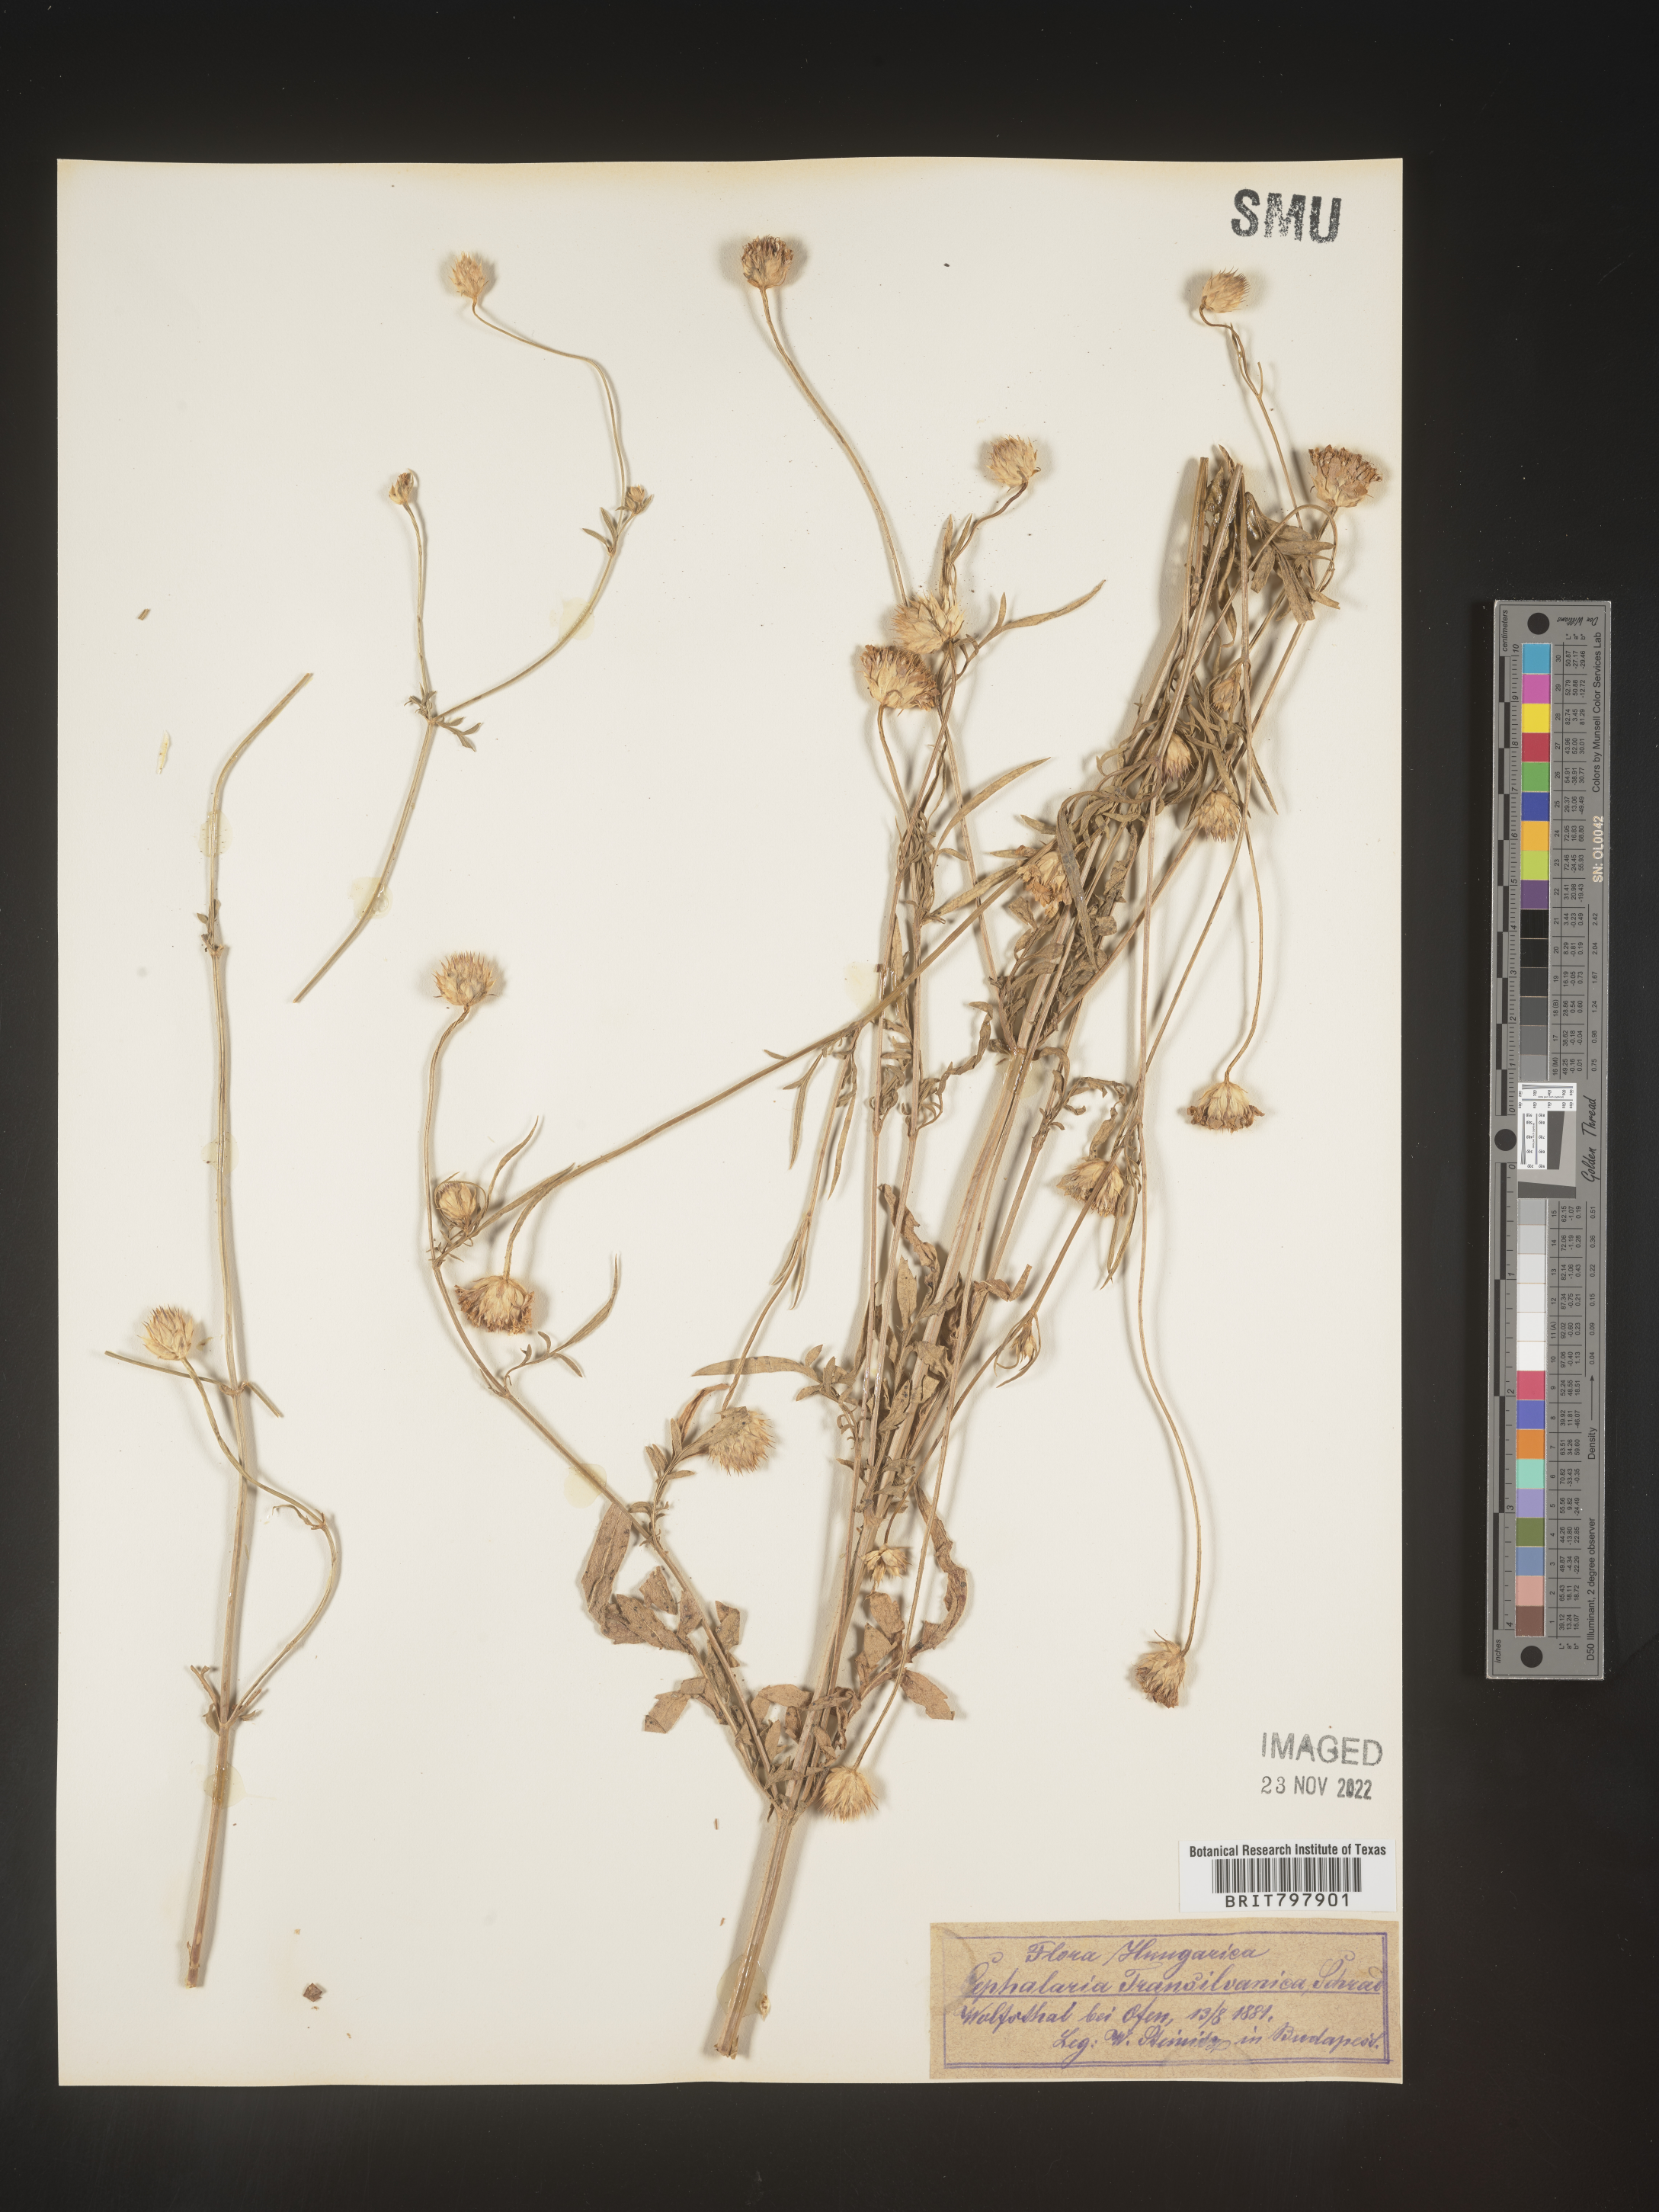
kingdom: Plantae
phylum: Tracheophyta
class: Magnoliopsida
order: Dipsacales
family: Caprifoliaceae
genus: Cephalaria
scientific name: Cephalaria
